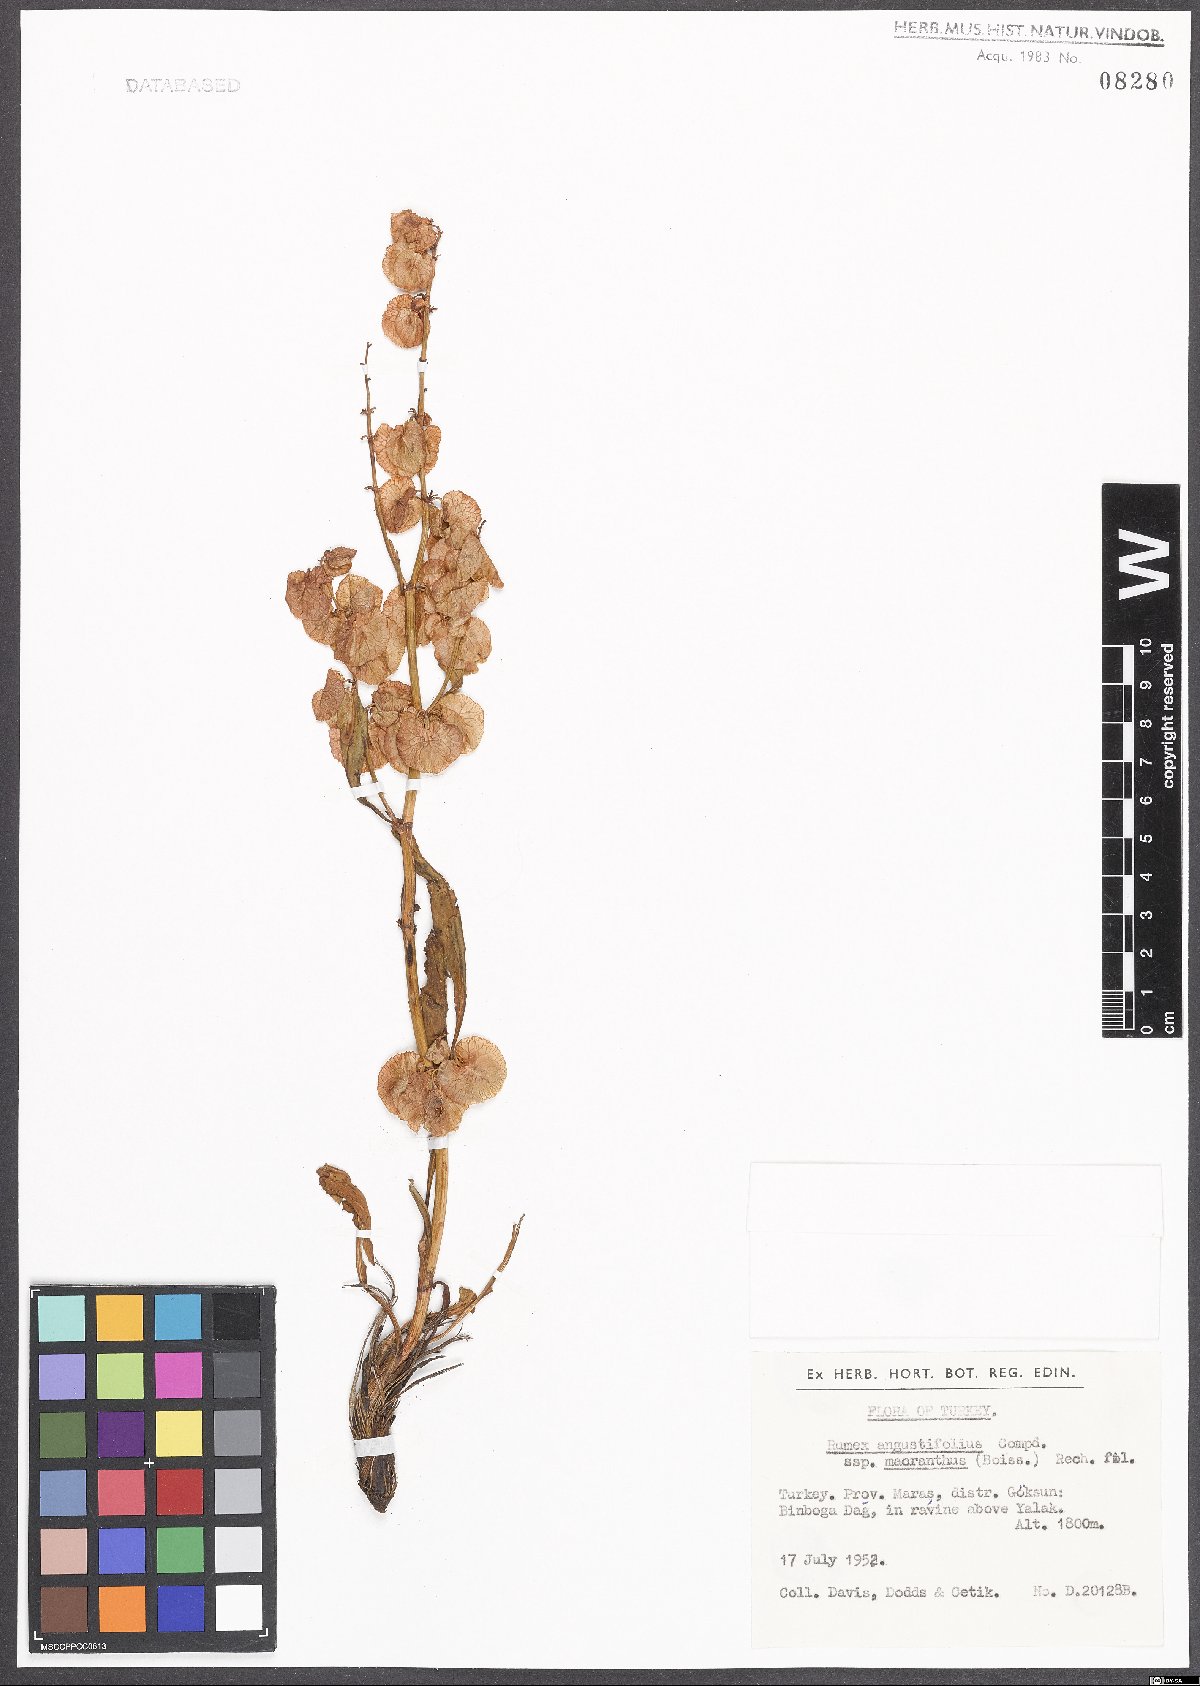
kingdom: Plantae
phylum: Tracheophyta
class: Magnoliopsida
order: Caryophyllales
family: Polygonaceae
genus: Rumex
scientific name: Rumex angustifolius
